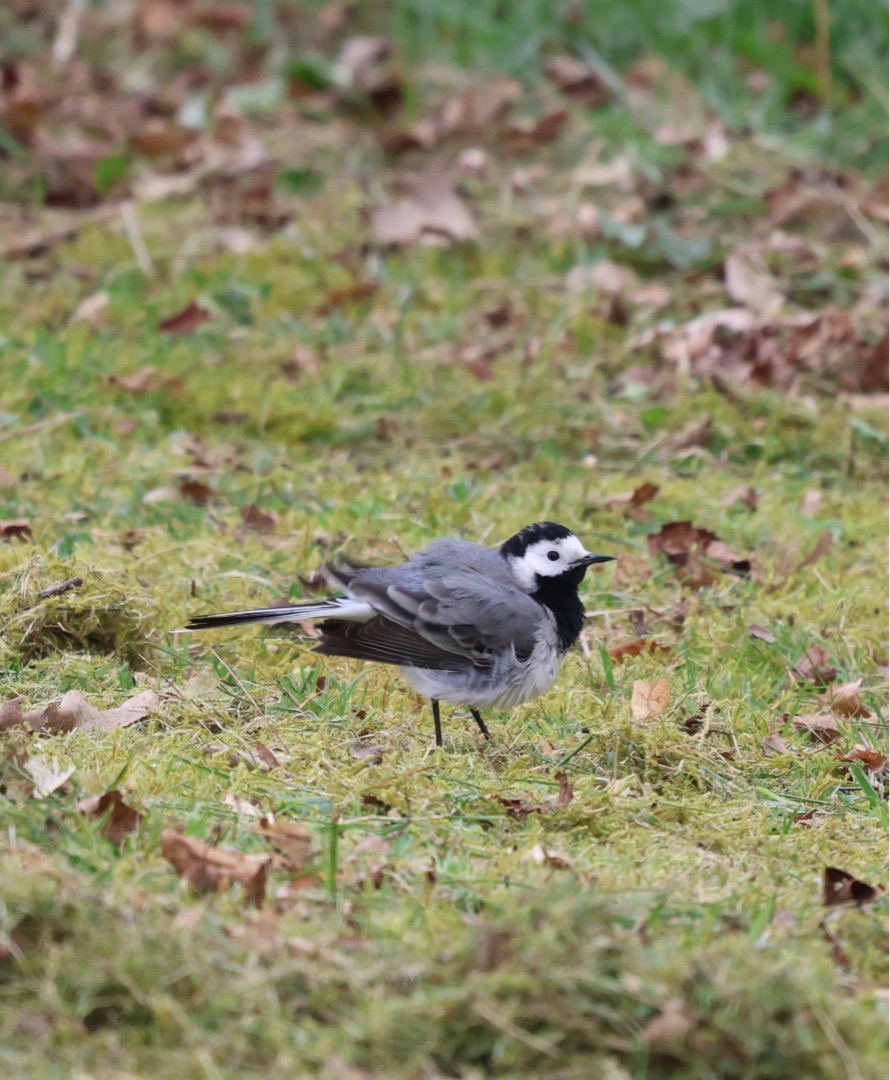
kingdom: Animalia
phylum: Chordata
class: Aves
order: Passeriformes
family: Motacillidae
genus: Motacilla
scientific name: Motacilla alba
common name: Hvid vipstjert
